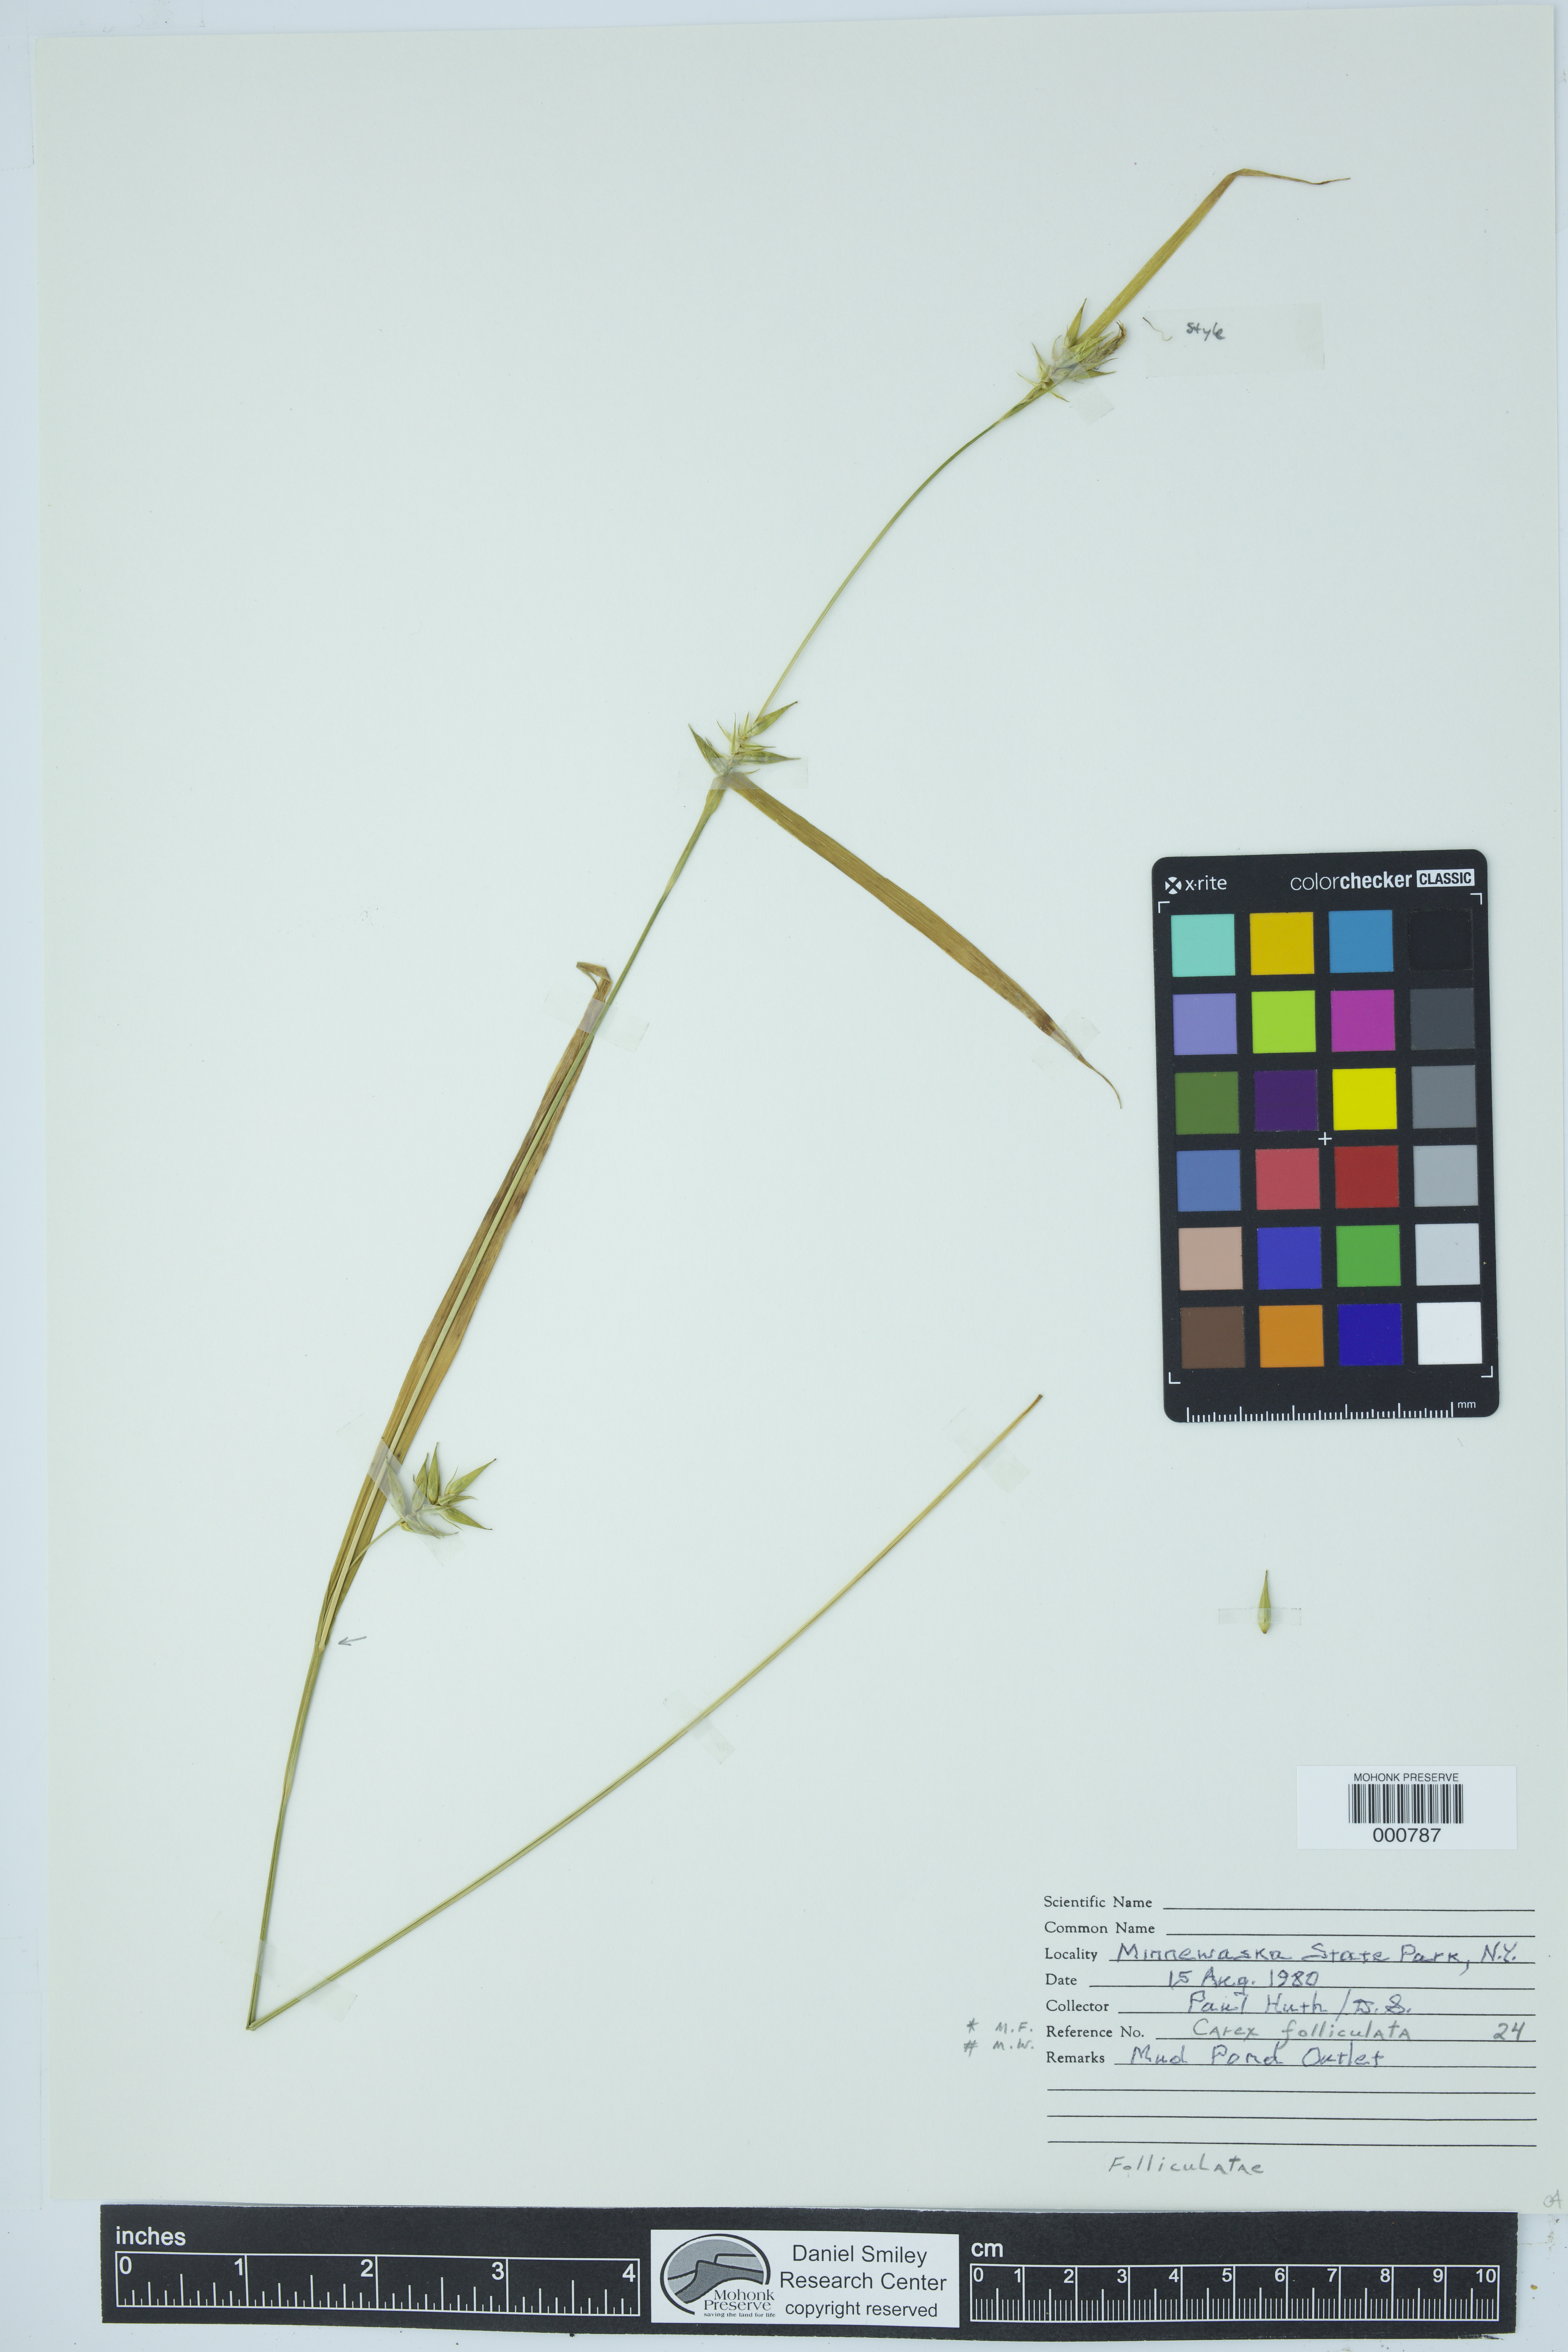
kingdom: Plantae
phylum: Tracheophyta
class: Liliopsida
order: Poales
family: Cyperaceae
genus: Carex
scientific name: Carex folliculata
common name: Northern long sedge
